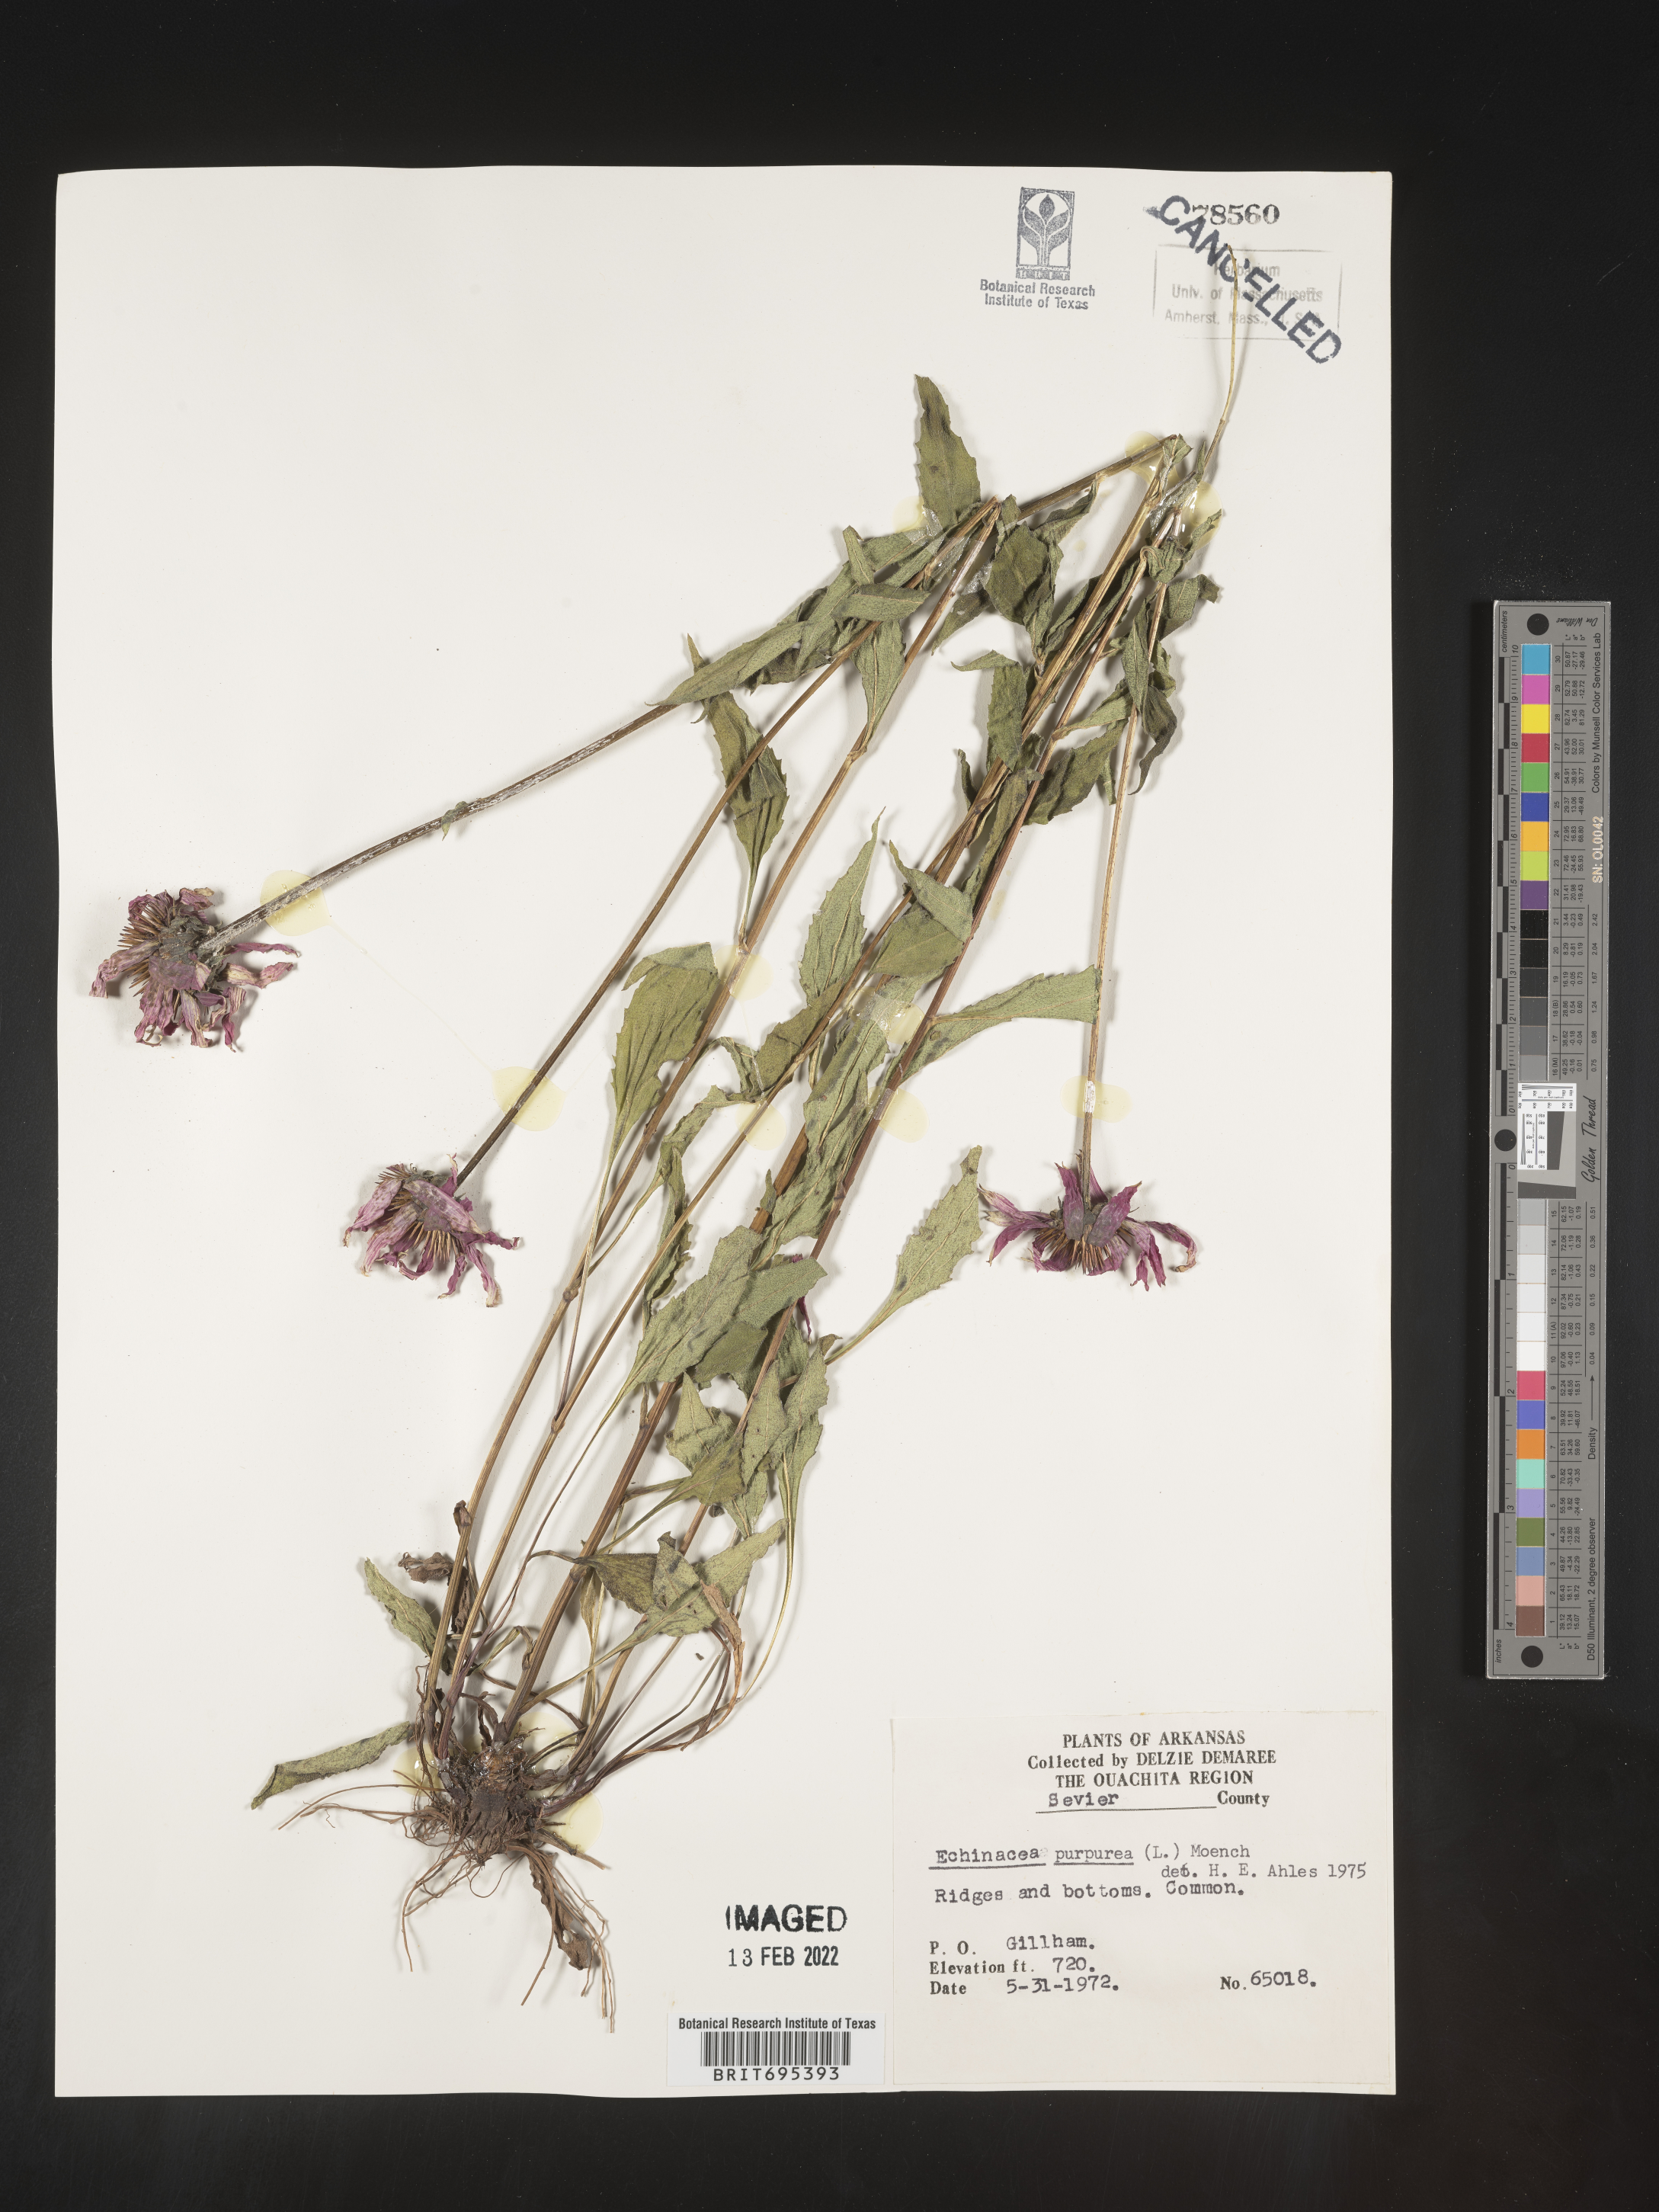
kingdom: Plantae
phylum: Tracheophyta
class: Magnoliopsida
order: Asterales
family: Asteraceae
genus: Echinacea
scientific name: Echinacea purpurea
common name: Broad-leaved purple coneflower
